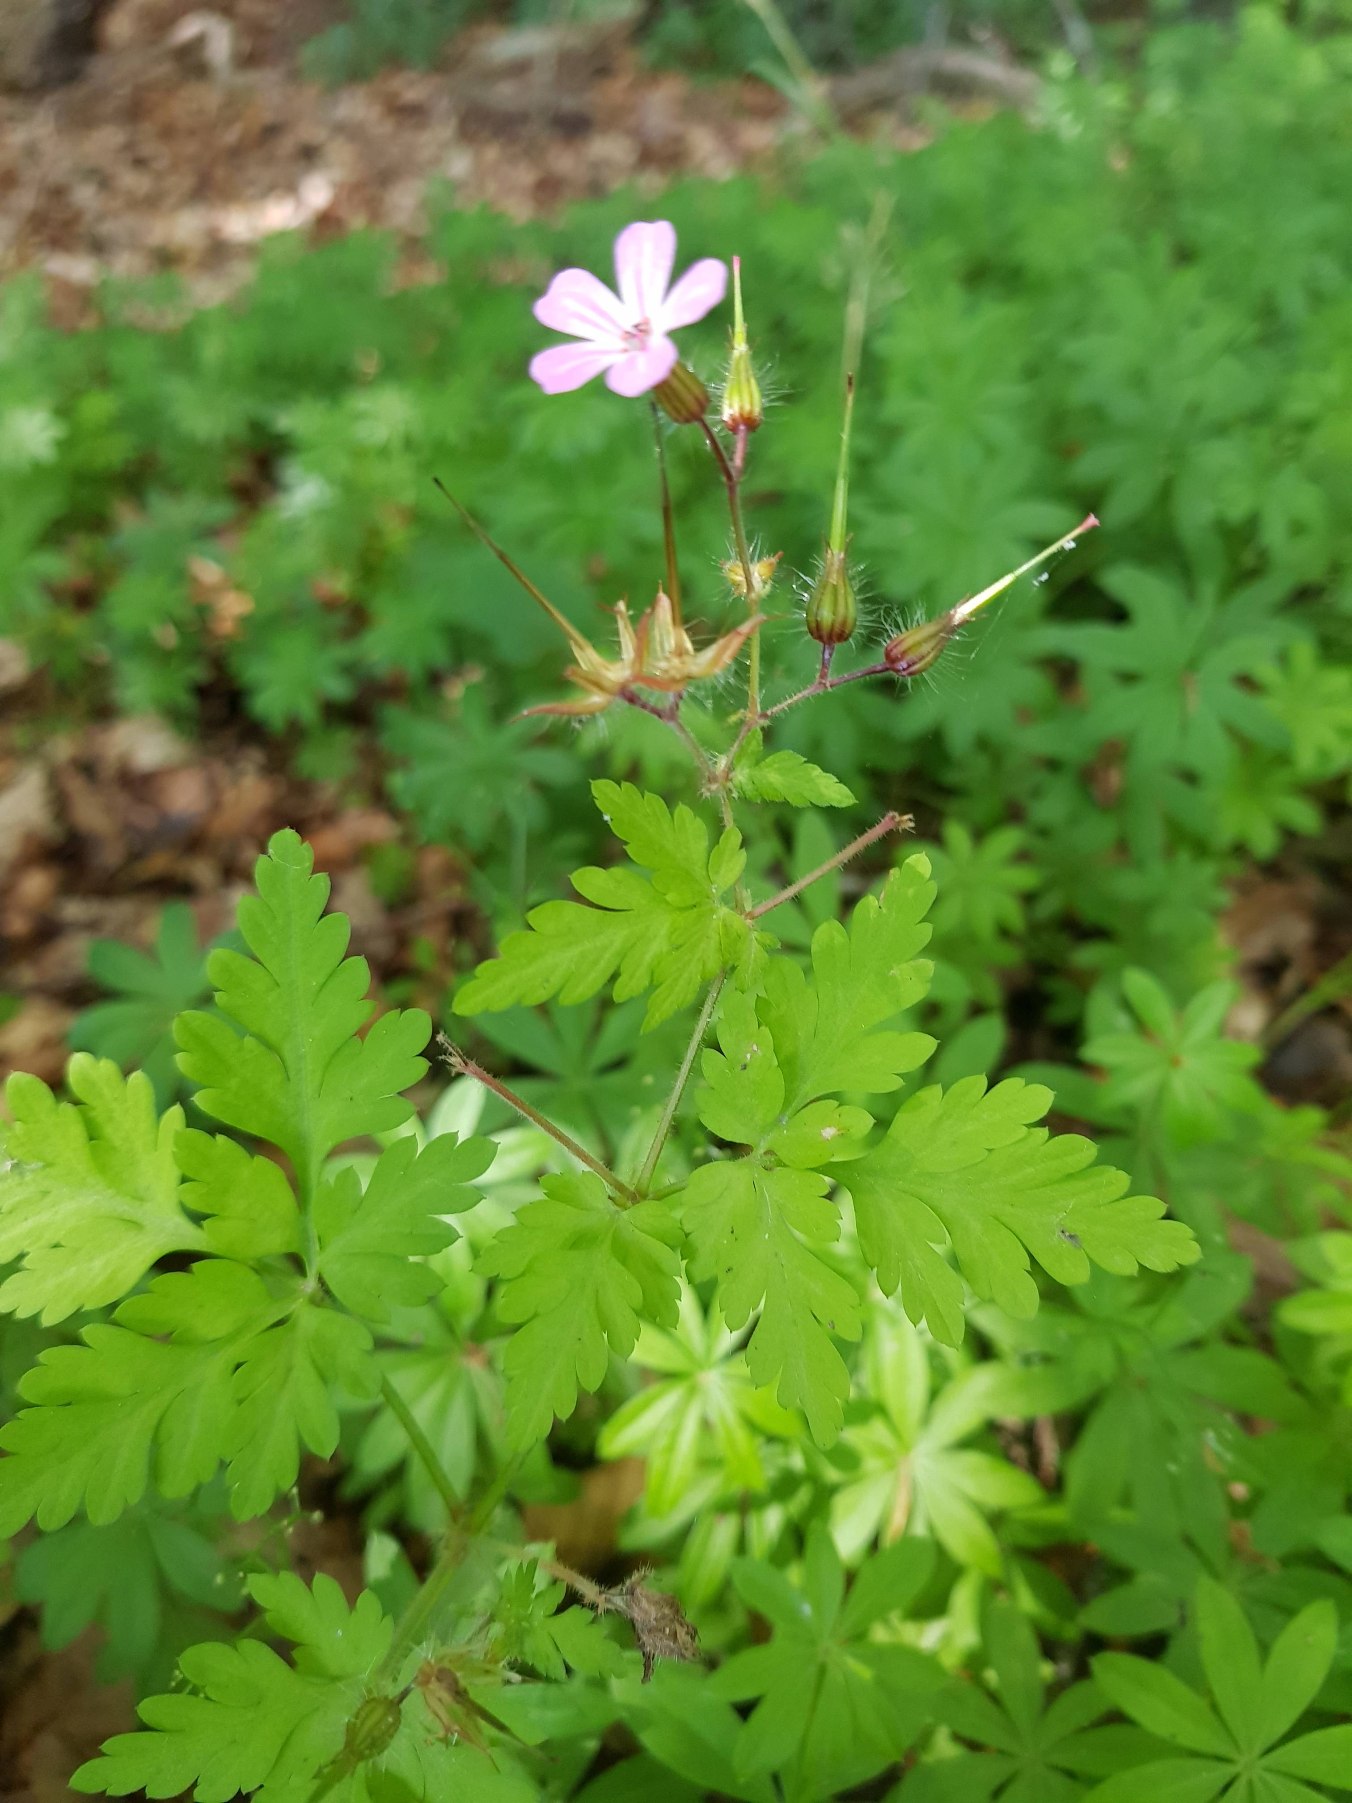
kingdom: Plantae
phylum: Tracheophyta
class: Magnoliopsida
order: Geraniales
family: Geraniaceae
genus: Geranium
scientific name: Geranium robertianum
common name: Stinkende storkenæb
